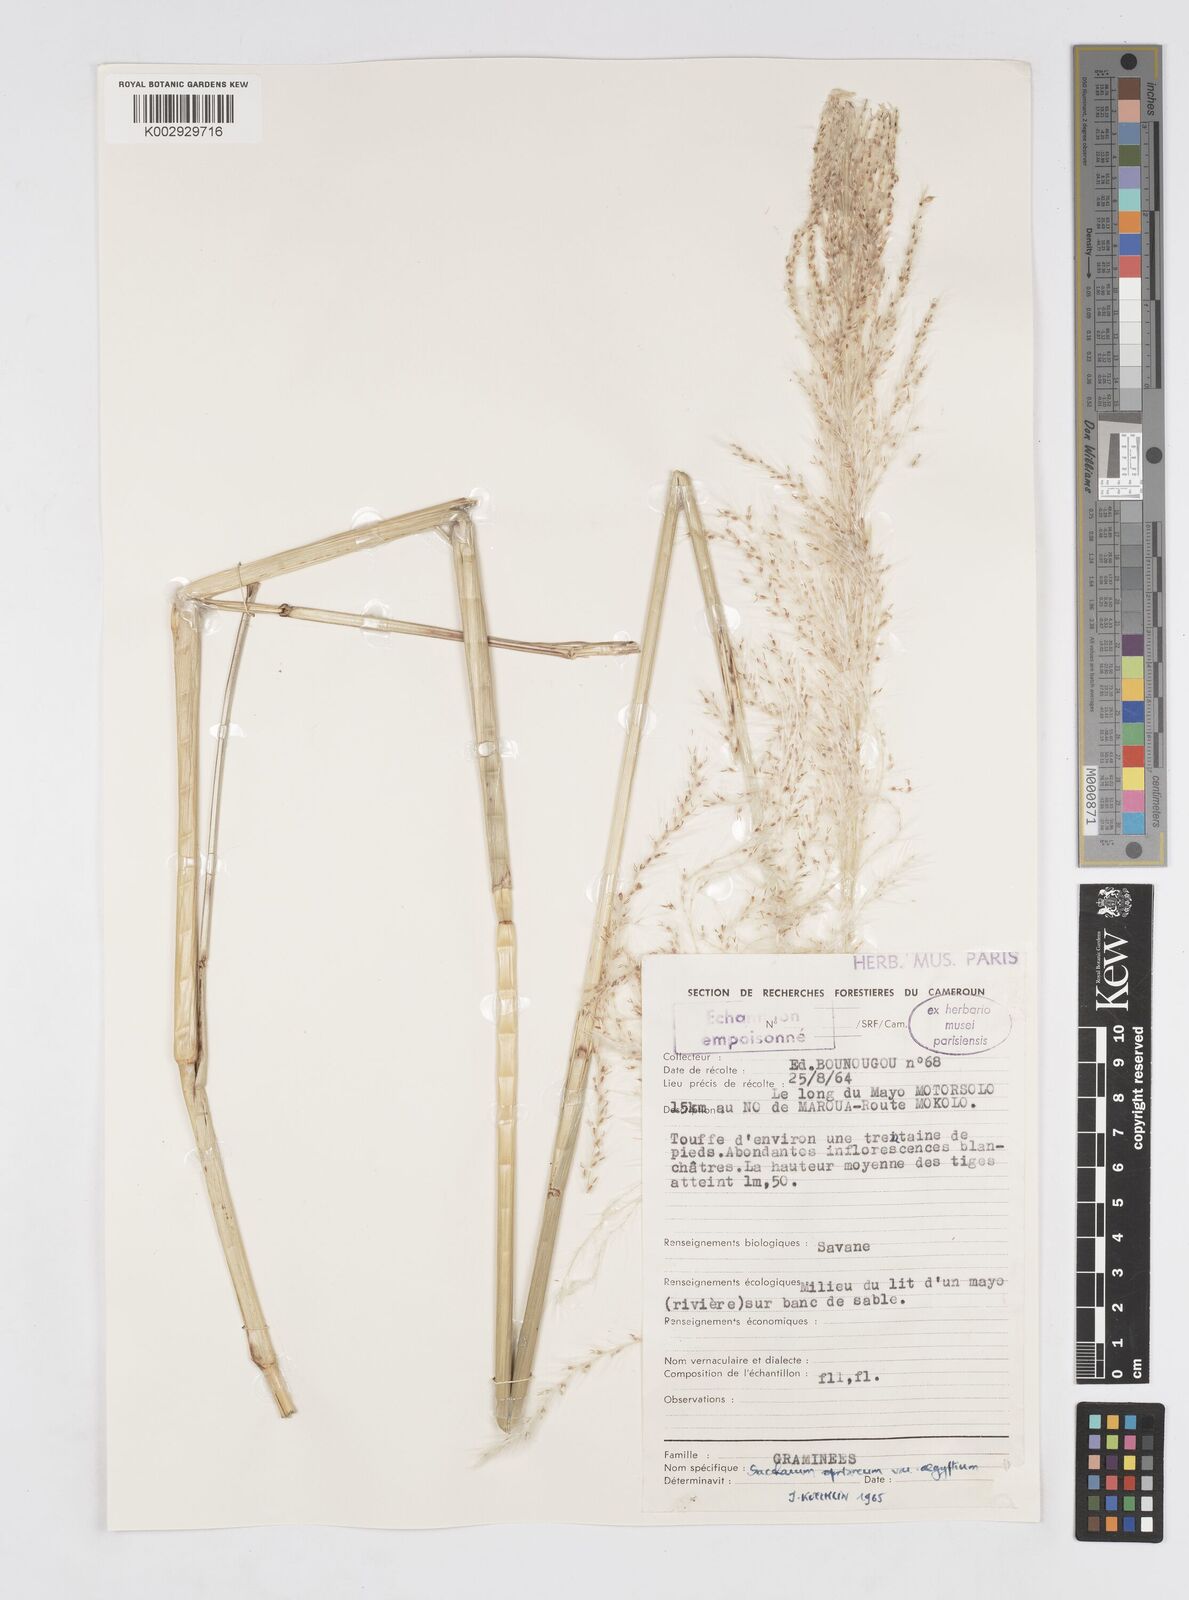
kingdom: Plantae
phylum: Tracheophyta
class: Liliopsida
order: Poales
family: Poaceae
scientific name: Poaceae
